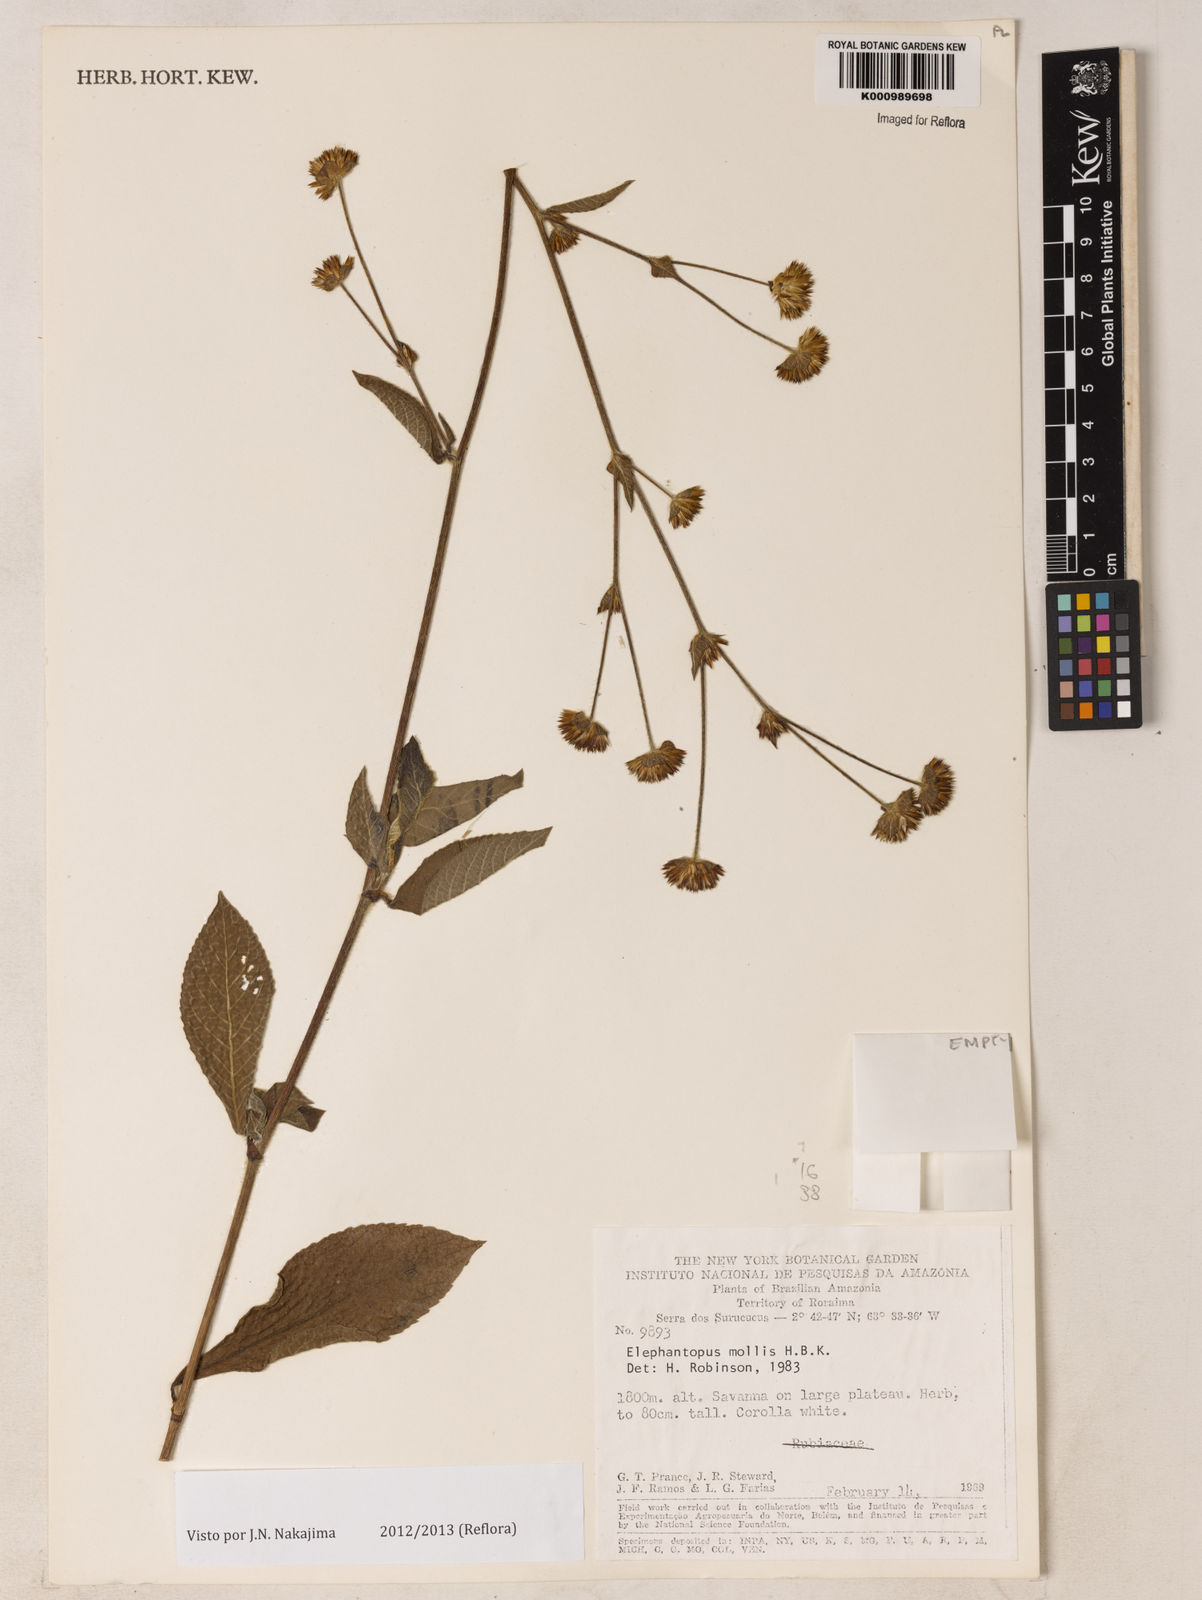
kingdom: Plantae
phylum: Tracheophyta
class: Magnoliopsida
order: Asterales
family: Asteraceae
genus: Elephantopus
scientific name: Elephantopus mollis
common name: Soft elephantsfoot
